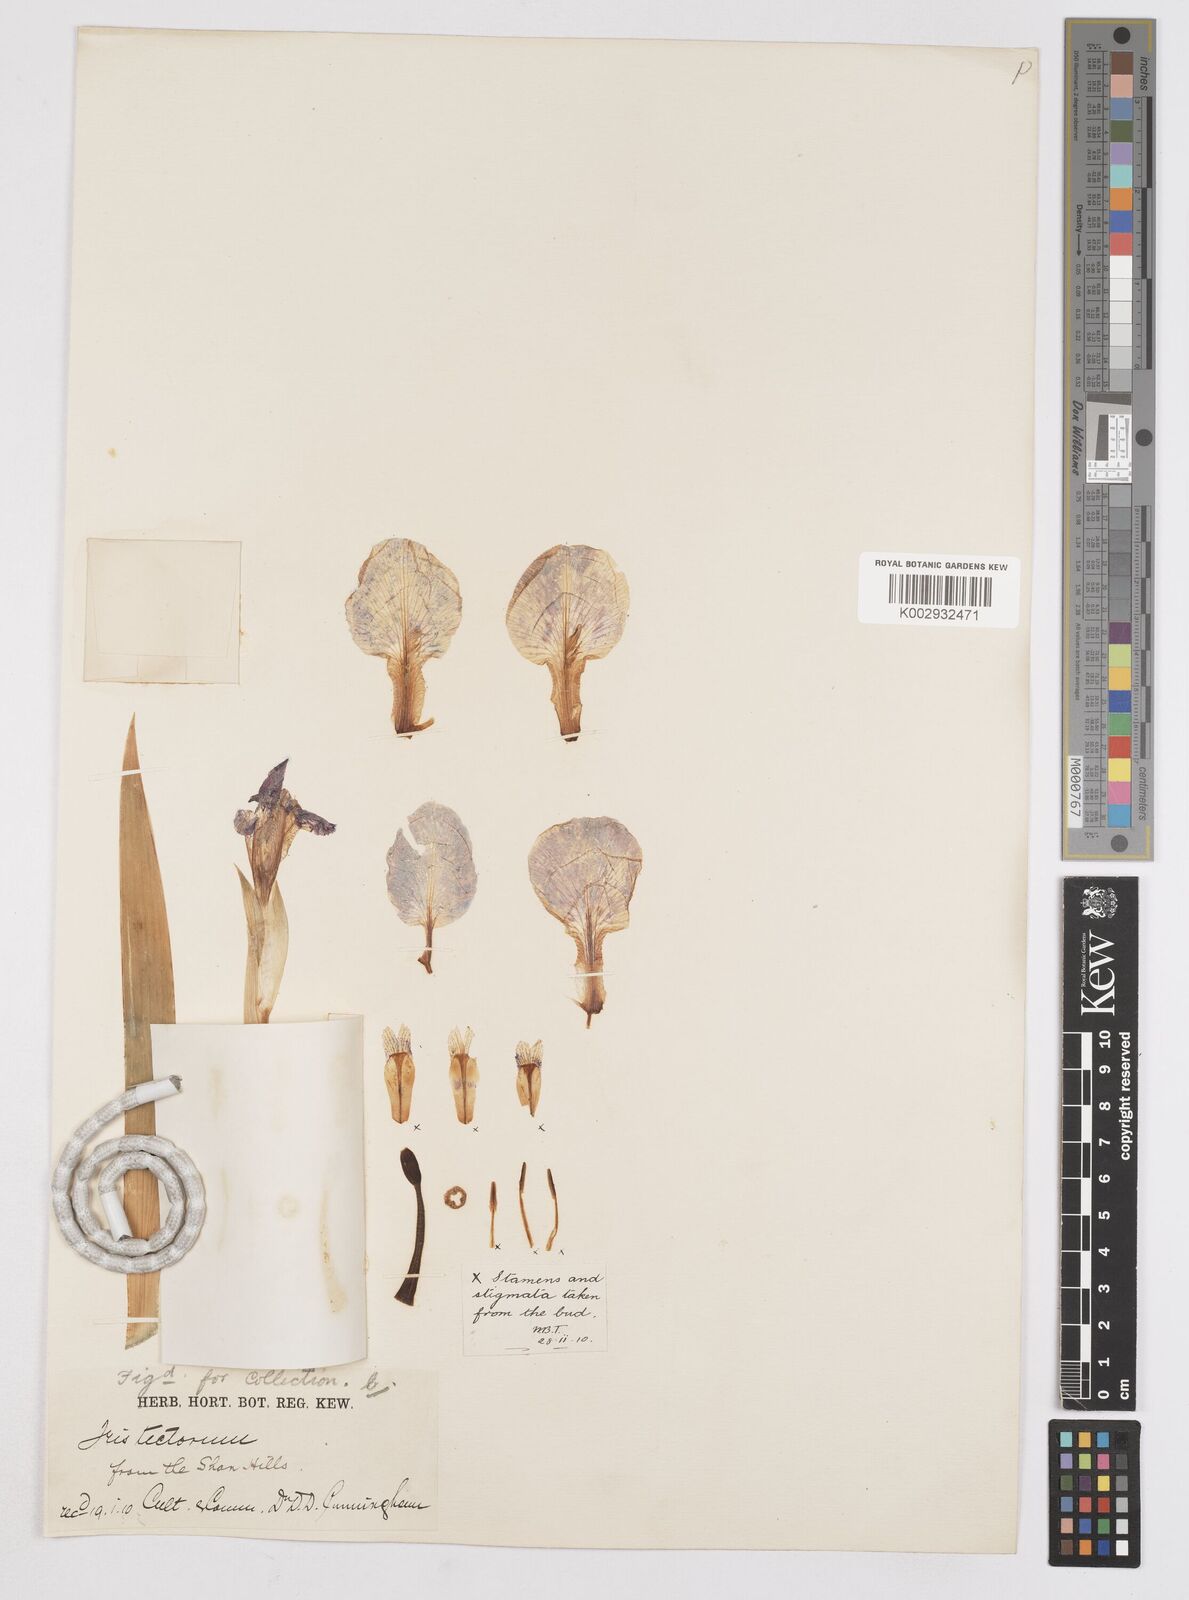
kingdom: Plantae
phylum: Tracheophyta
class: Liliopsida
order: Asparagales
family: Iridaceae
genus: Iris
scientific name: Iris tectorum
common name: Wall iris
